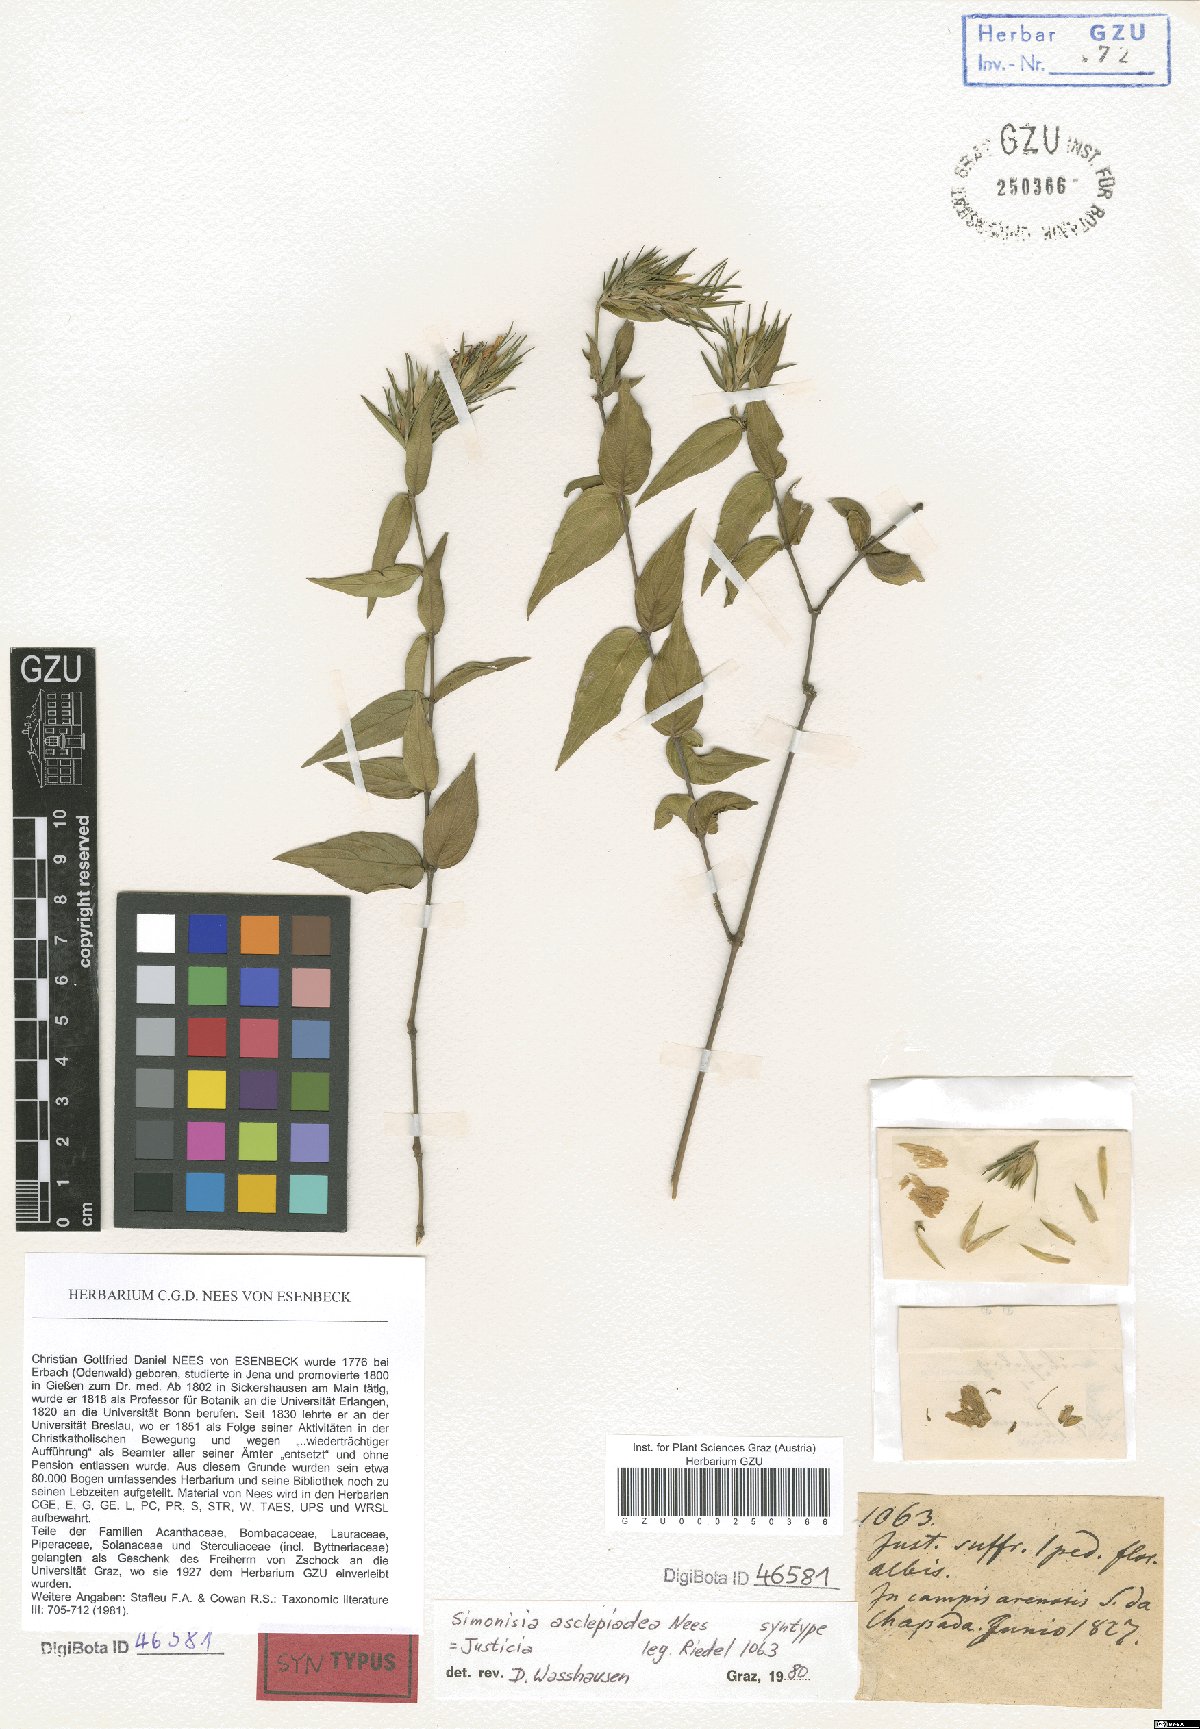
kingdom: Plantae
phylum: Tracheophyta
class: Magnoliopsida
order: Lamiales
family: Acanthaceae
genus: Justicia
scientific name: Justicia asclepiadea
